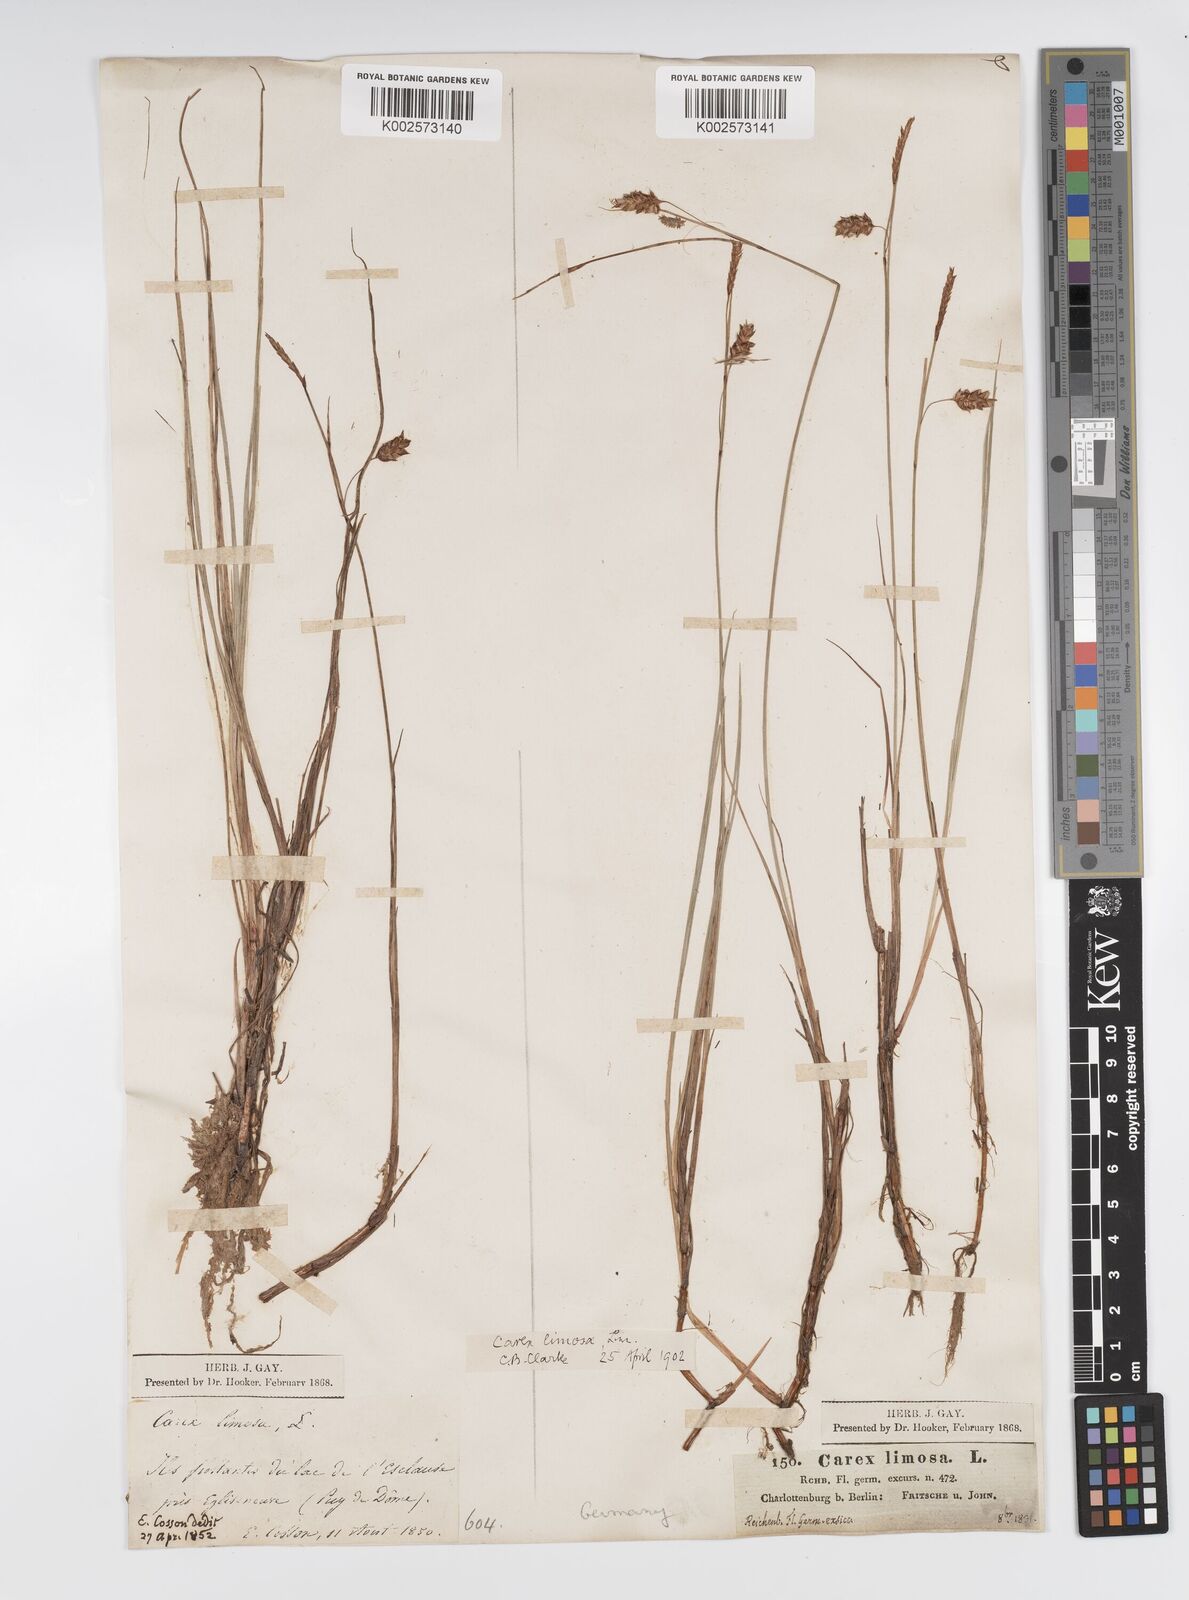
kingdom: Plantae
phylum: Tracheophyta
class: Liliopsida
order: Poales
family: Cyperaceae
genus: Carex
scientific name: Carex limosa
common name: Bog sedge
